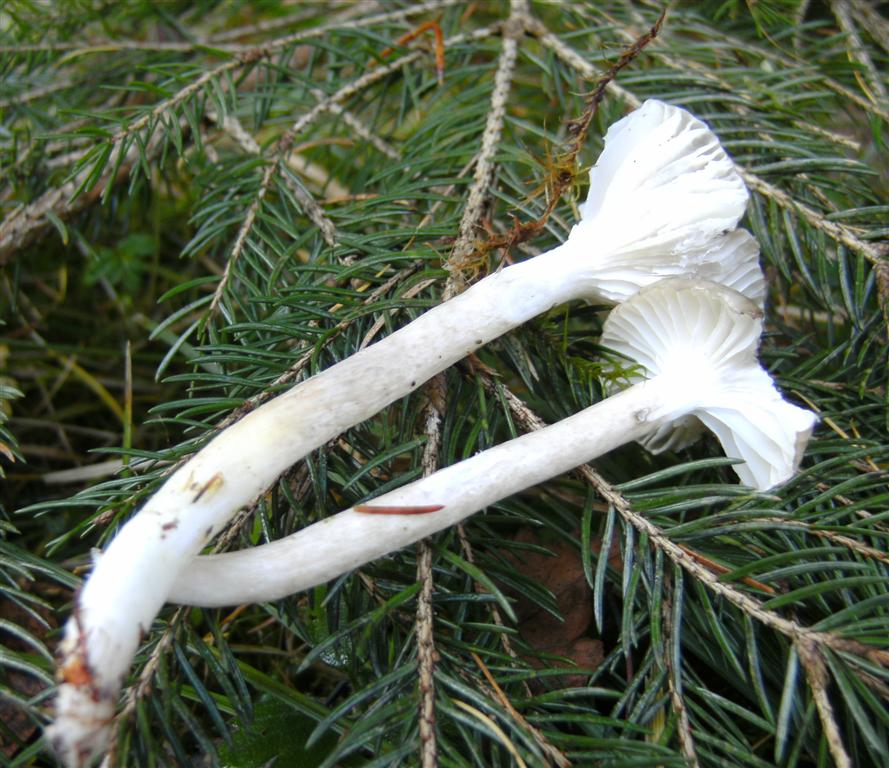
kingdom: Fungi
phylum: Basidiomycota
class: Agaricomycetes
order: Agaricales
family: Hygrophoraceae
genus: Hygrophorus
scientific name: Hygrophorus olivaceoalbus
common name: hvidbrun sneglehat
